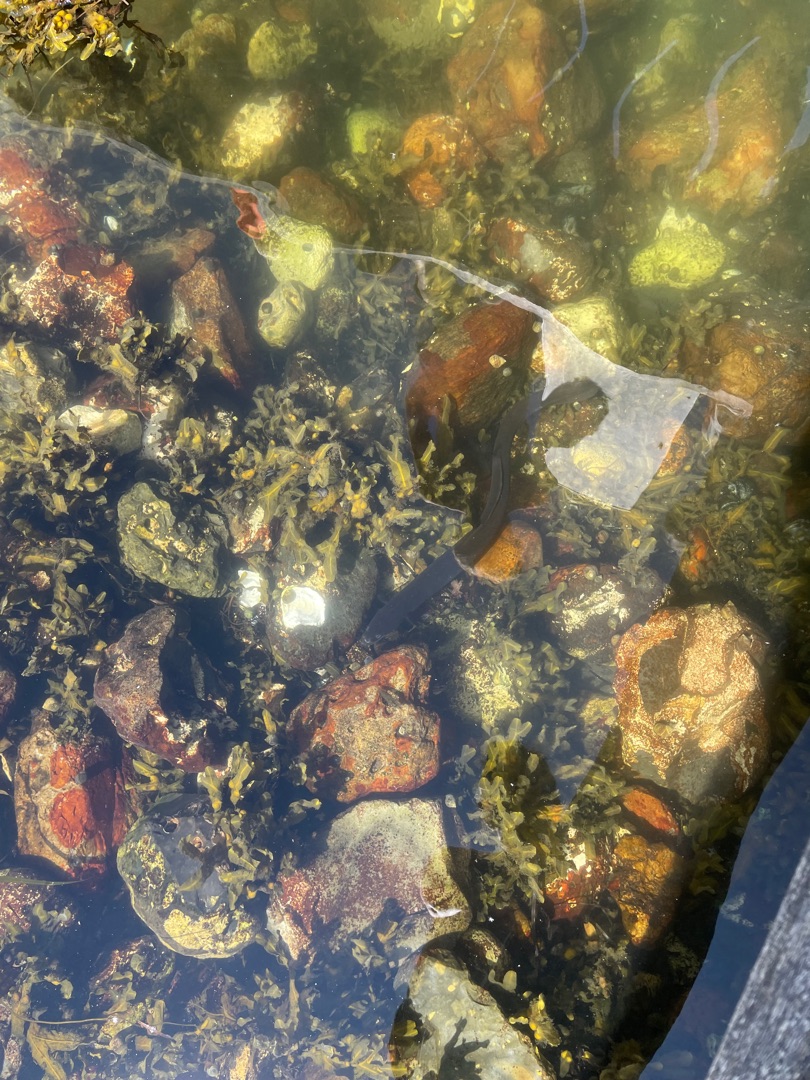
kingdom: Animalia
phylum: Chordata
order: Anguilliformes
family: Anguillidae
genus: Anguilla
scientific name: Anguilla anguilla
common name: Europæisk ål
